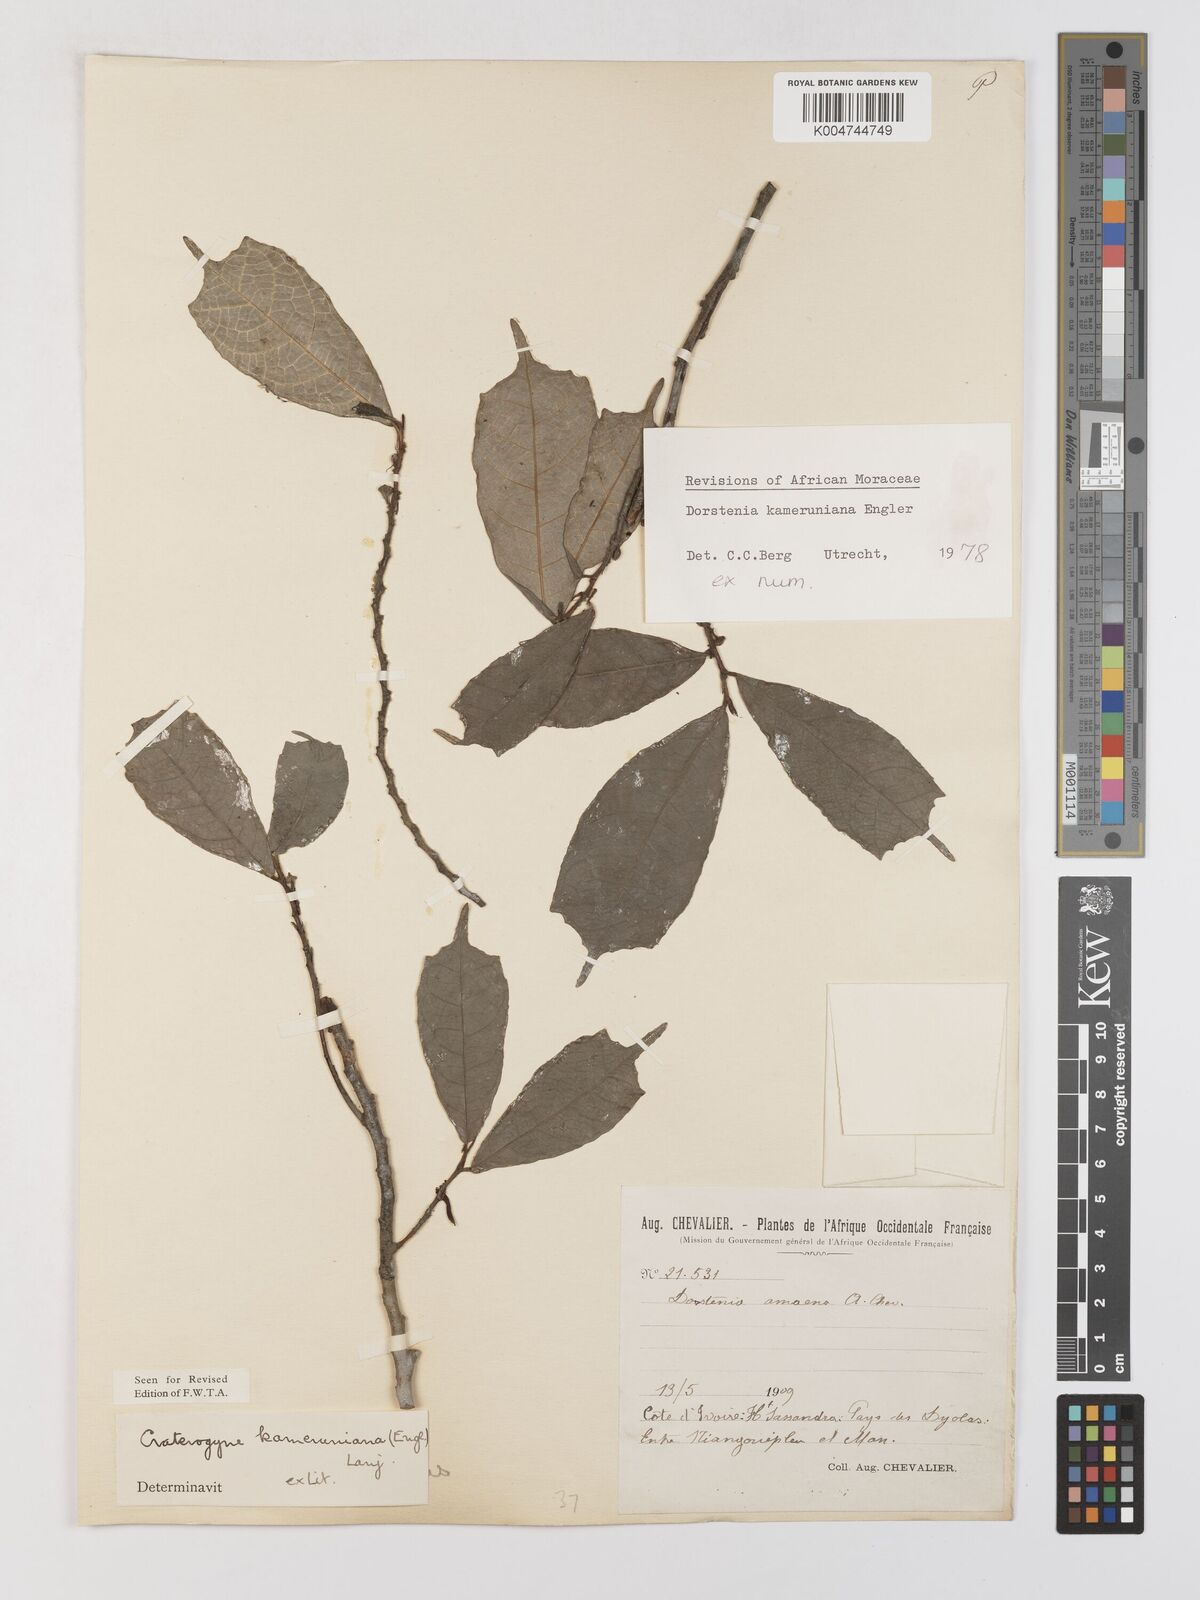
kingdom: Plantae
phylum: Tracheophyta
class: Magnoliopsida
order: Rosales
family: Moraceae
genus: Dorstenia
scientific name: Dorstenia kameruniana
